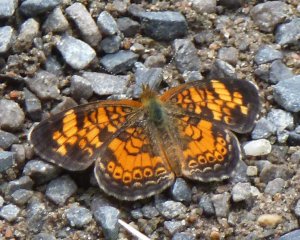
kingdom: Animalia
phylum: Arthropoda
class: Insecta
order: Lepidoptera
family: Nymphalidae
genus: Phyciodes
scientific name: Phyciodes tharos
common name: Pearl Crescent
